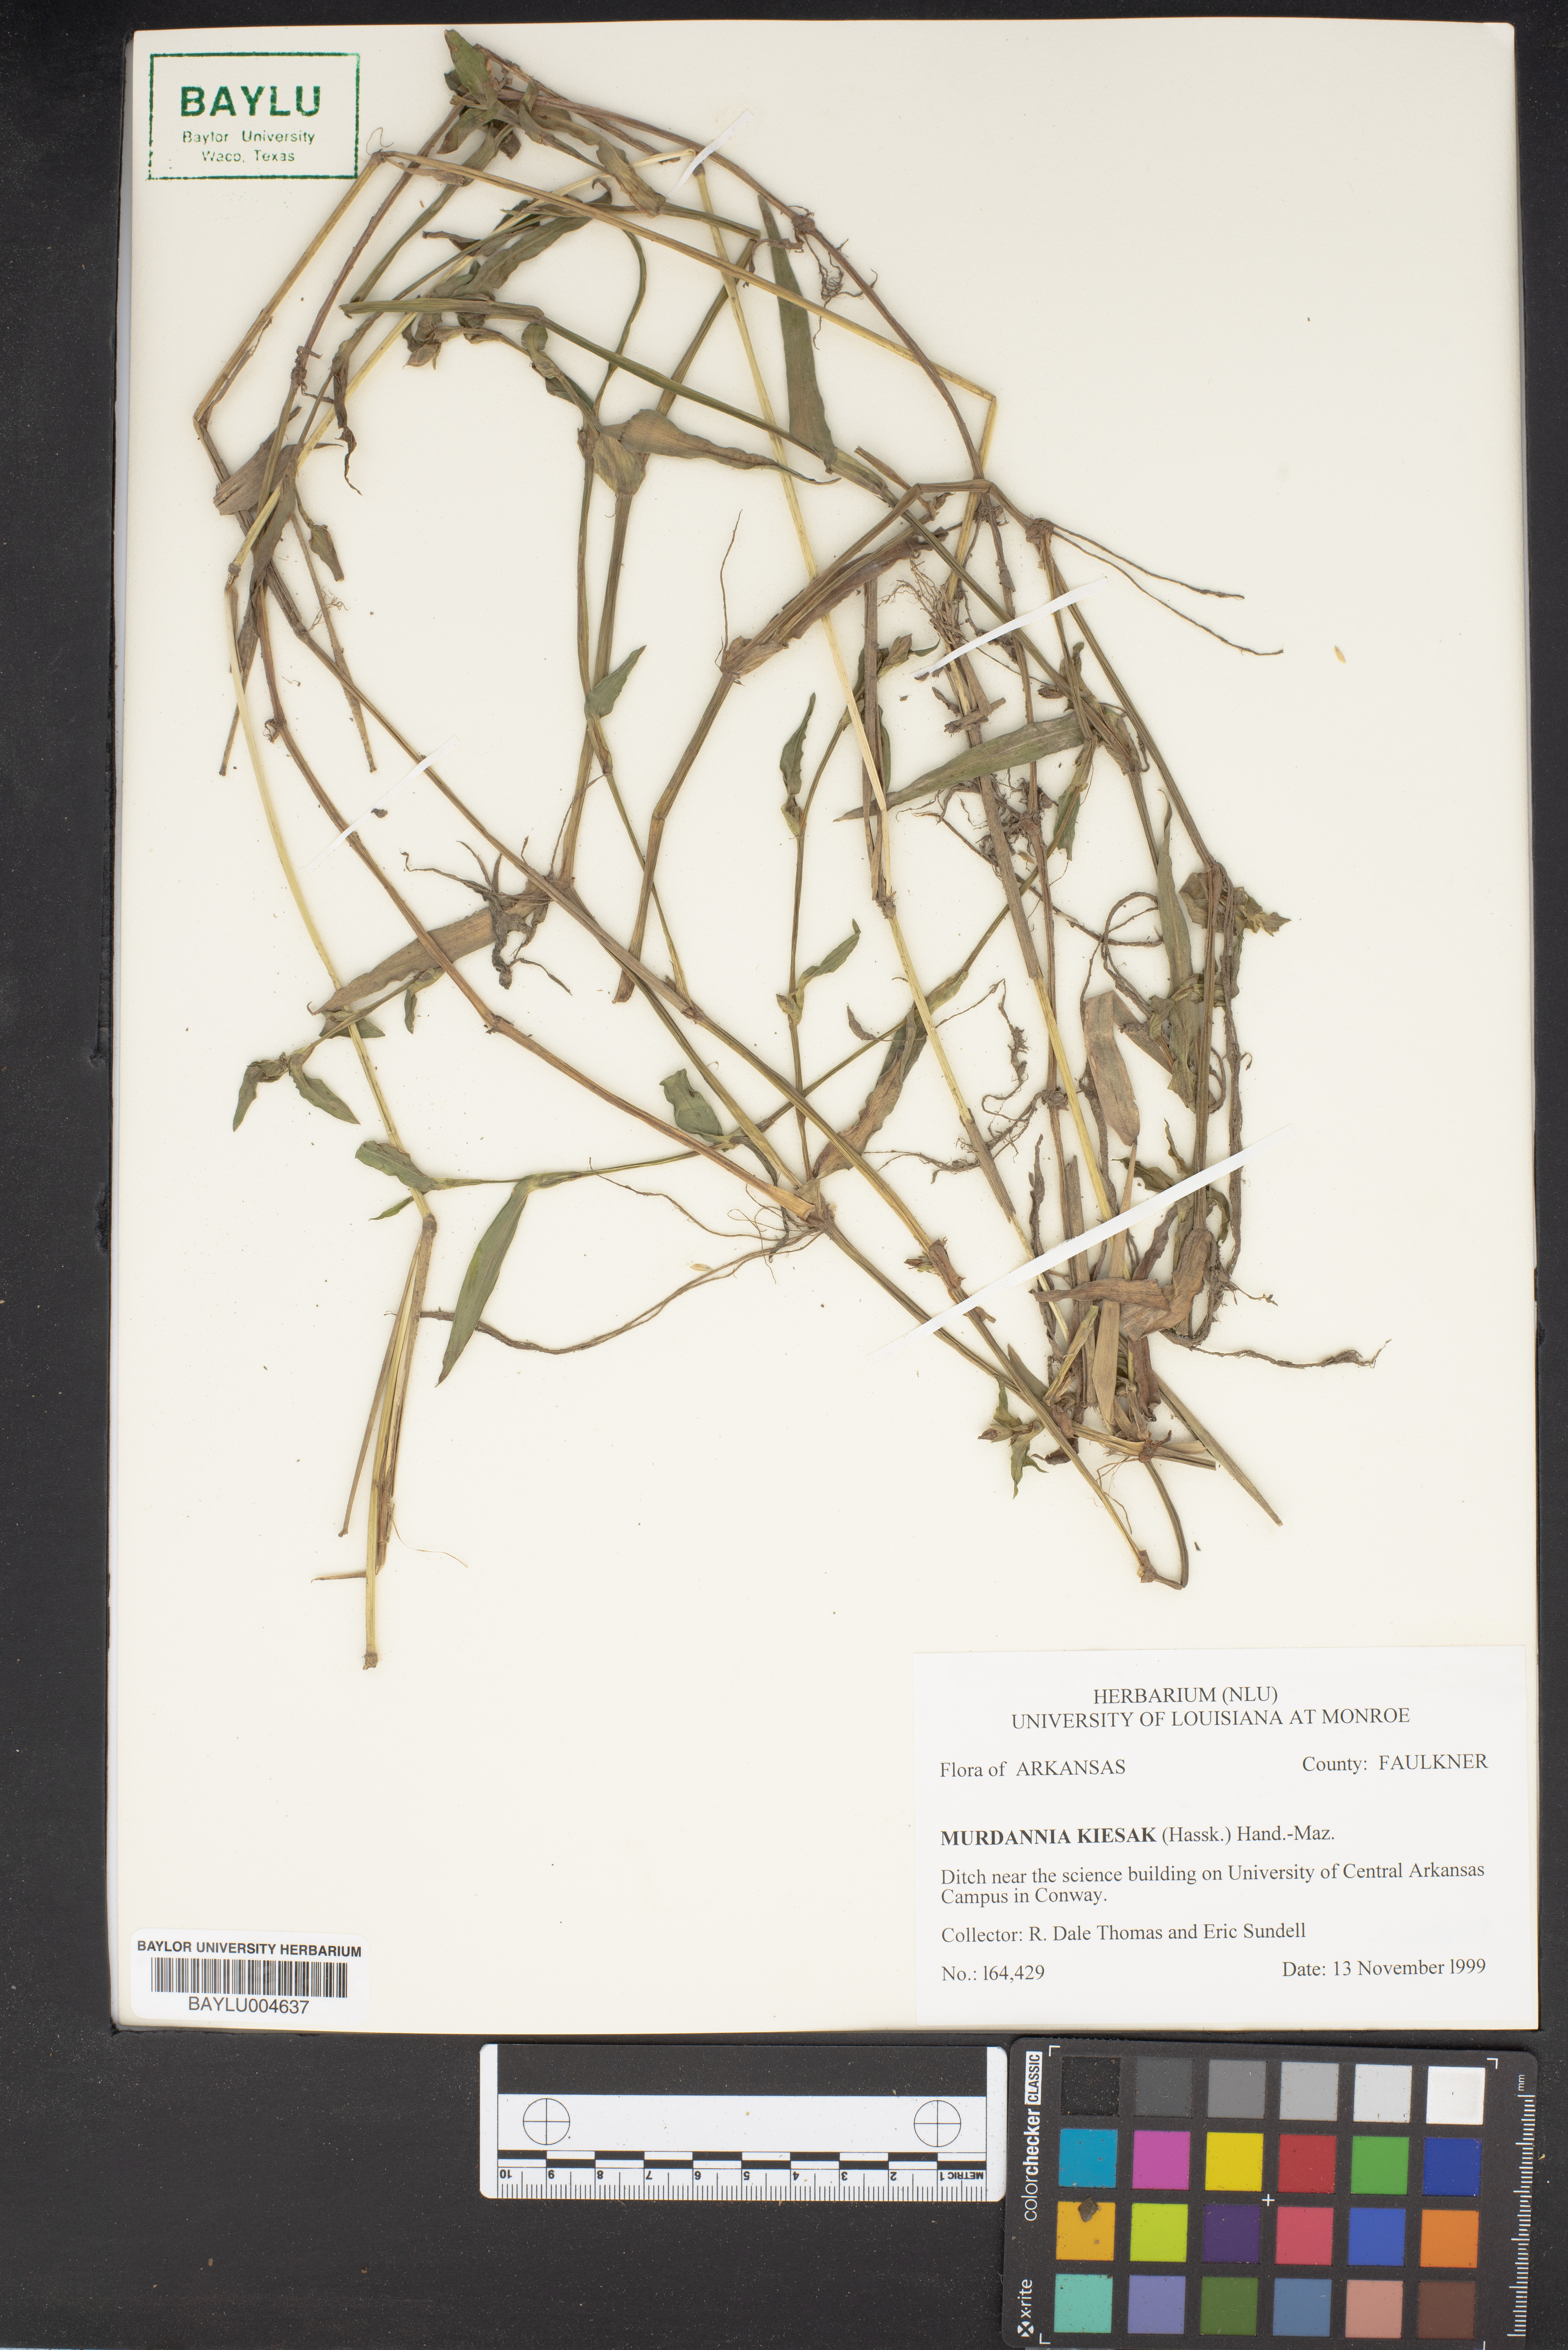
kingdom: Plantae
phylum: Tracheophyta
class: Liliopsida
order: Commelinales
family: Commelinaceae
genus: Murdannia
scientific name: Murdannia keisak
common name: Wartremoving herb
